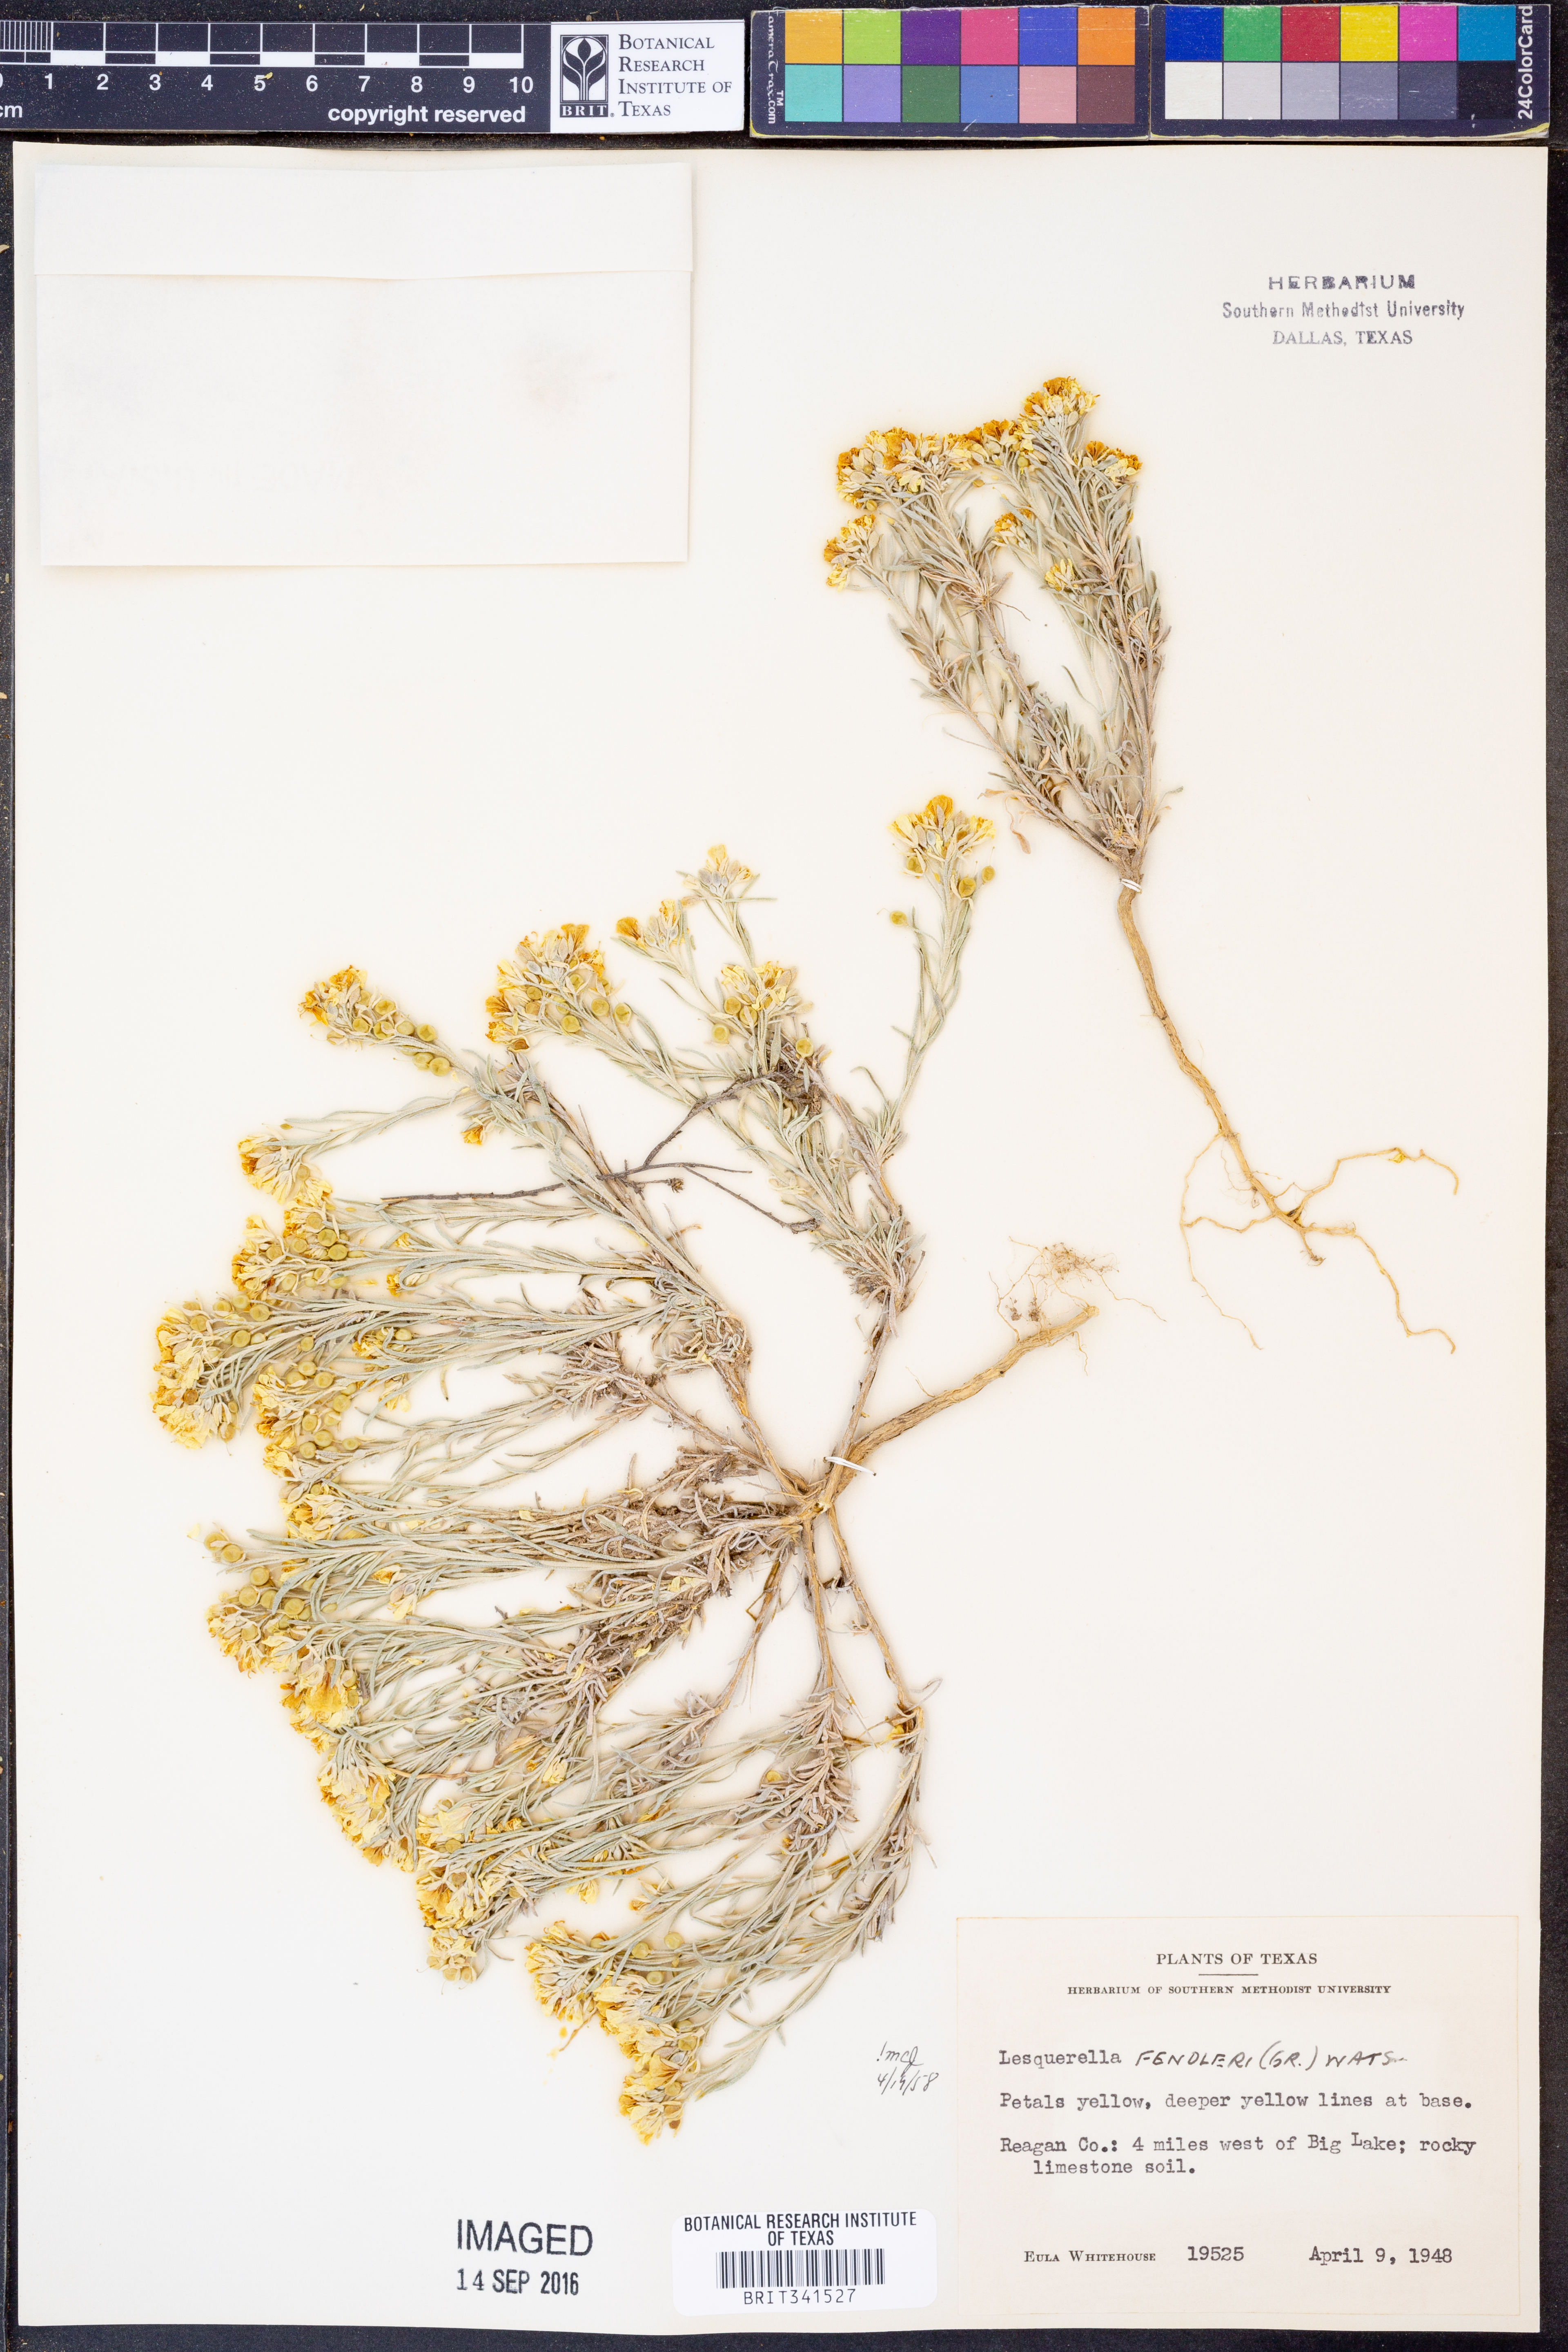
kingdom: Plantae
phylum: Tracheophyta
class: Magnoliopsida
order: Brassicales
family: Brassicaceae
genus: Physaria
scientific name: Physaria fendleri
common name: Fendler's bladderpod
